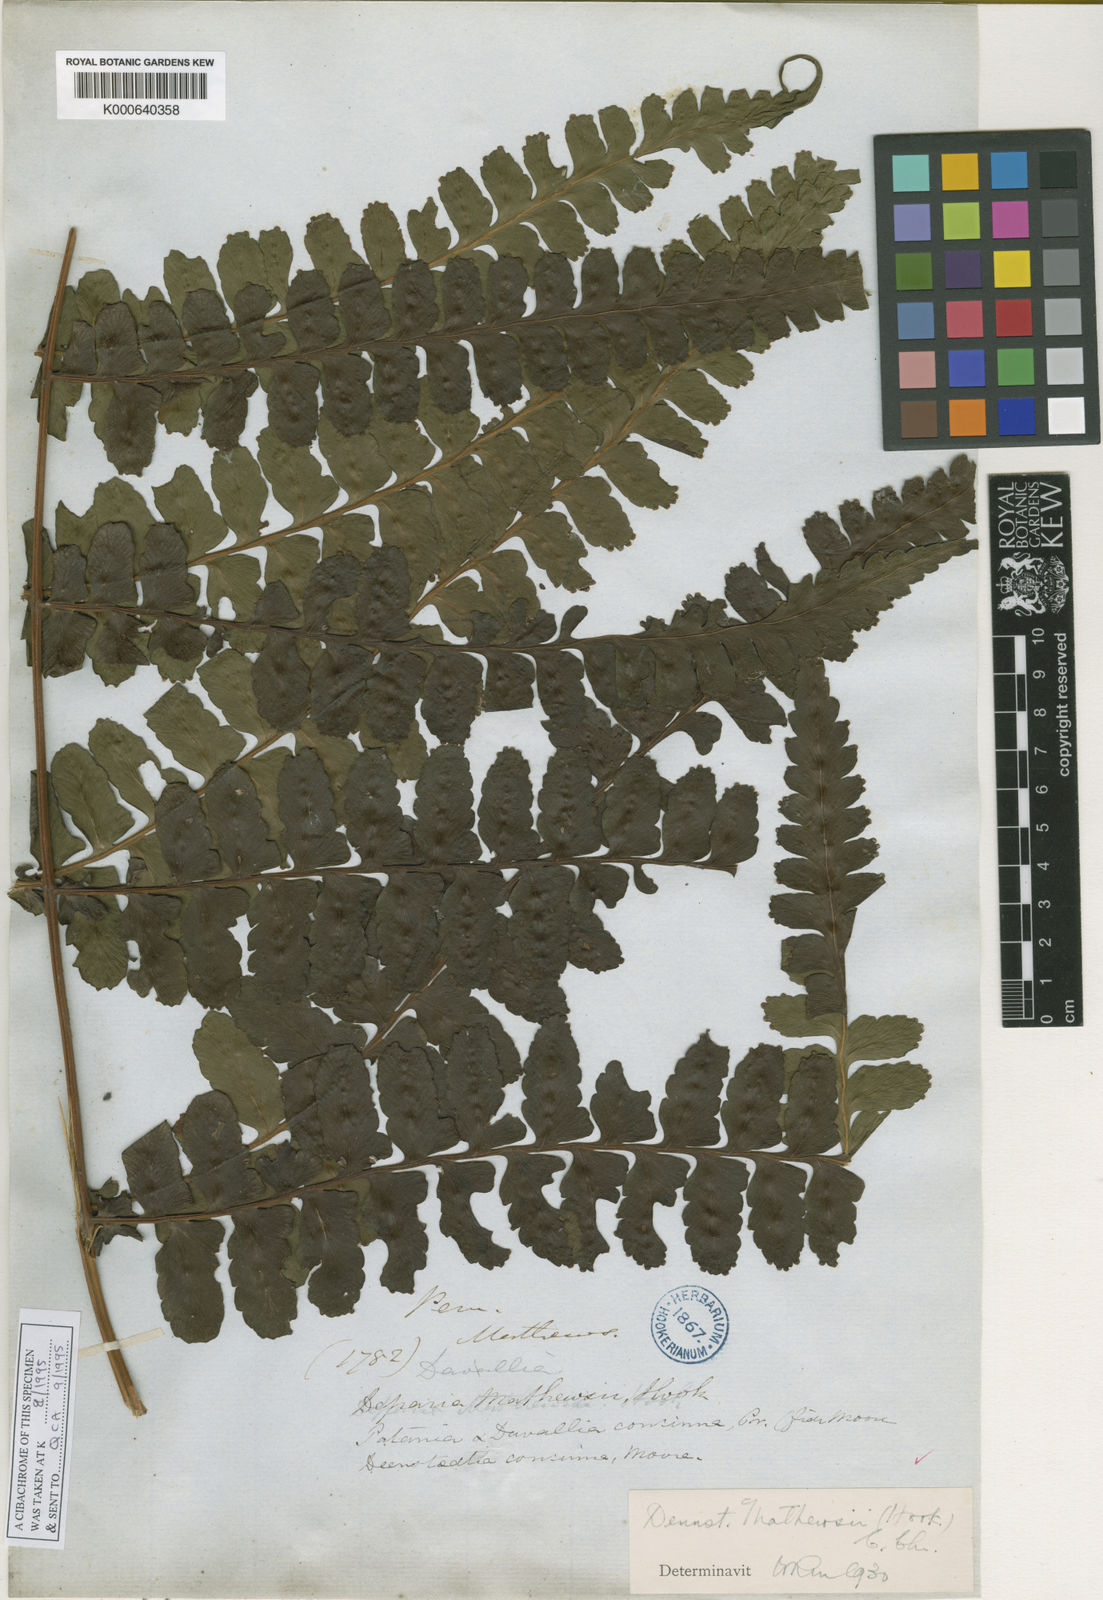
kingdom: Plantae
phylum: Tracheophyta
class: Polypodiopsida
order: Polypodiales
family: Dennstaedtiaceae
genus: Dennstaedtia
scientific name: Dennstaedtia mathewsii
